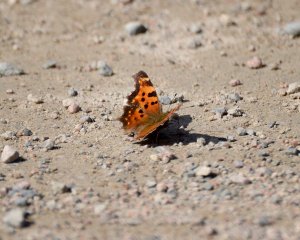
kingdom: Animalia
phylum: Arthropoda
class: Insecta
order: Lepidoptera
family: Nymphalidae
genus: Polygonia
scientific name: Polygonia faunus
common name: Green Comma
